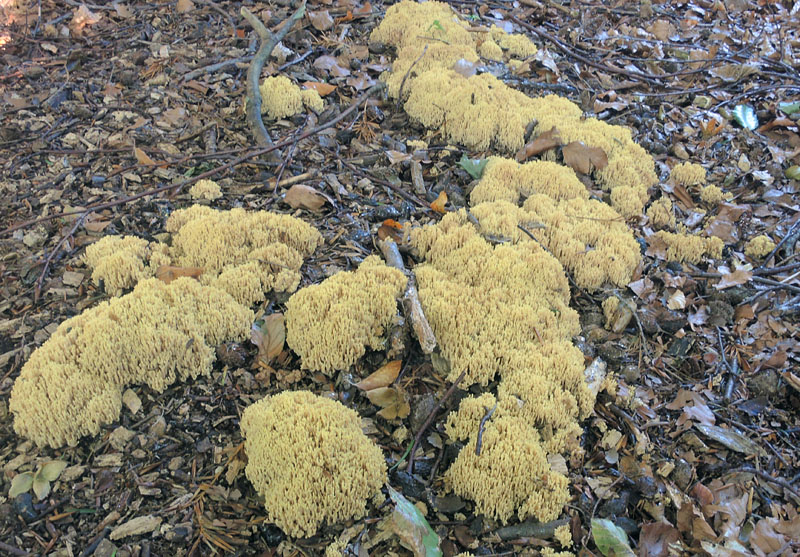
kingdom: Fungi
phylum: Basidiomycota
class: Agaricomycetes
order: Gomphales
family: Gomphaceae
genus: Ramaria
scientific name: Ramaria stricta
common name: rank koralsvamp
